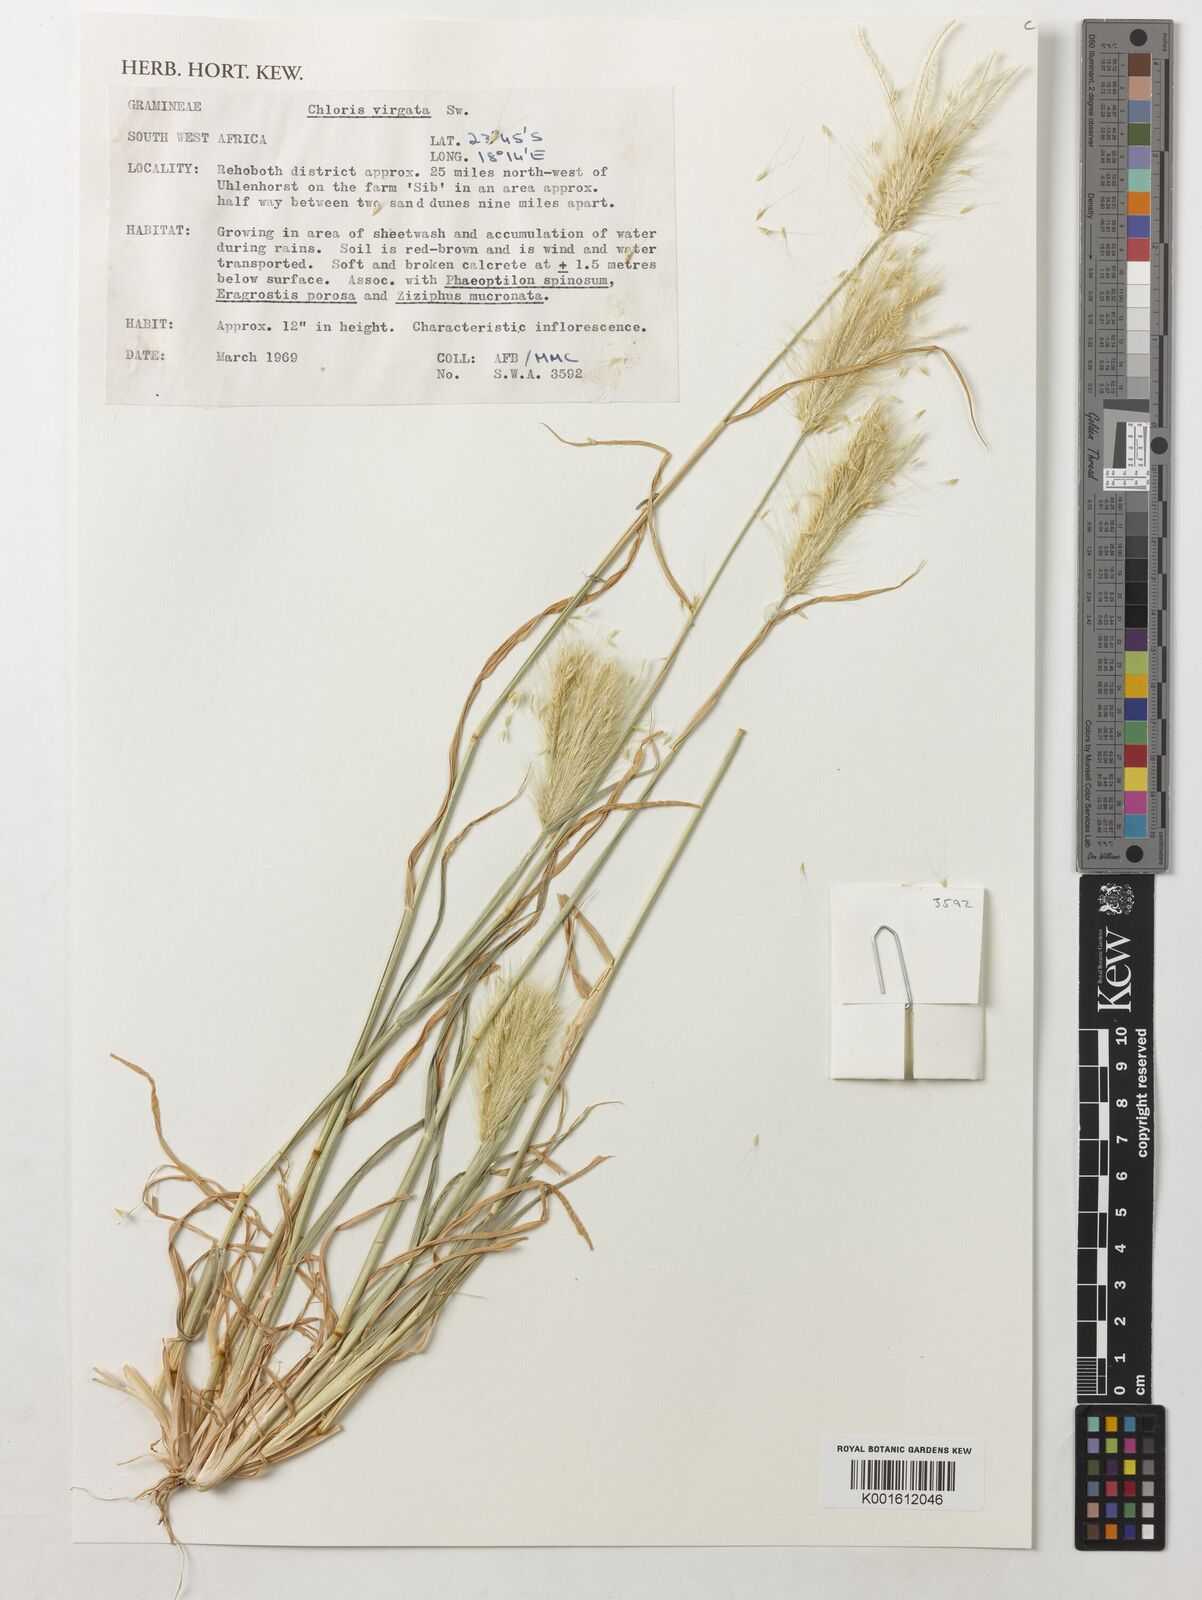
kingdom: Plantae
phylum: Tracheophyta
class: Liliopsida
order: Poales
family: Poaceae
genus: Chloris
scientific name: Chloris virgata
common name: Feathery rhodes-grass
